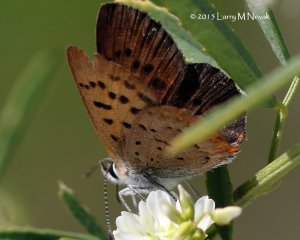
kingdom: Animalia
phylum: Arthropoda
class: Insecta
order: Lepidoptera
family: Lycaenidae
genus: Epidemia
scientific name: Epidemia dorcas
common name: Dorcas Copper
